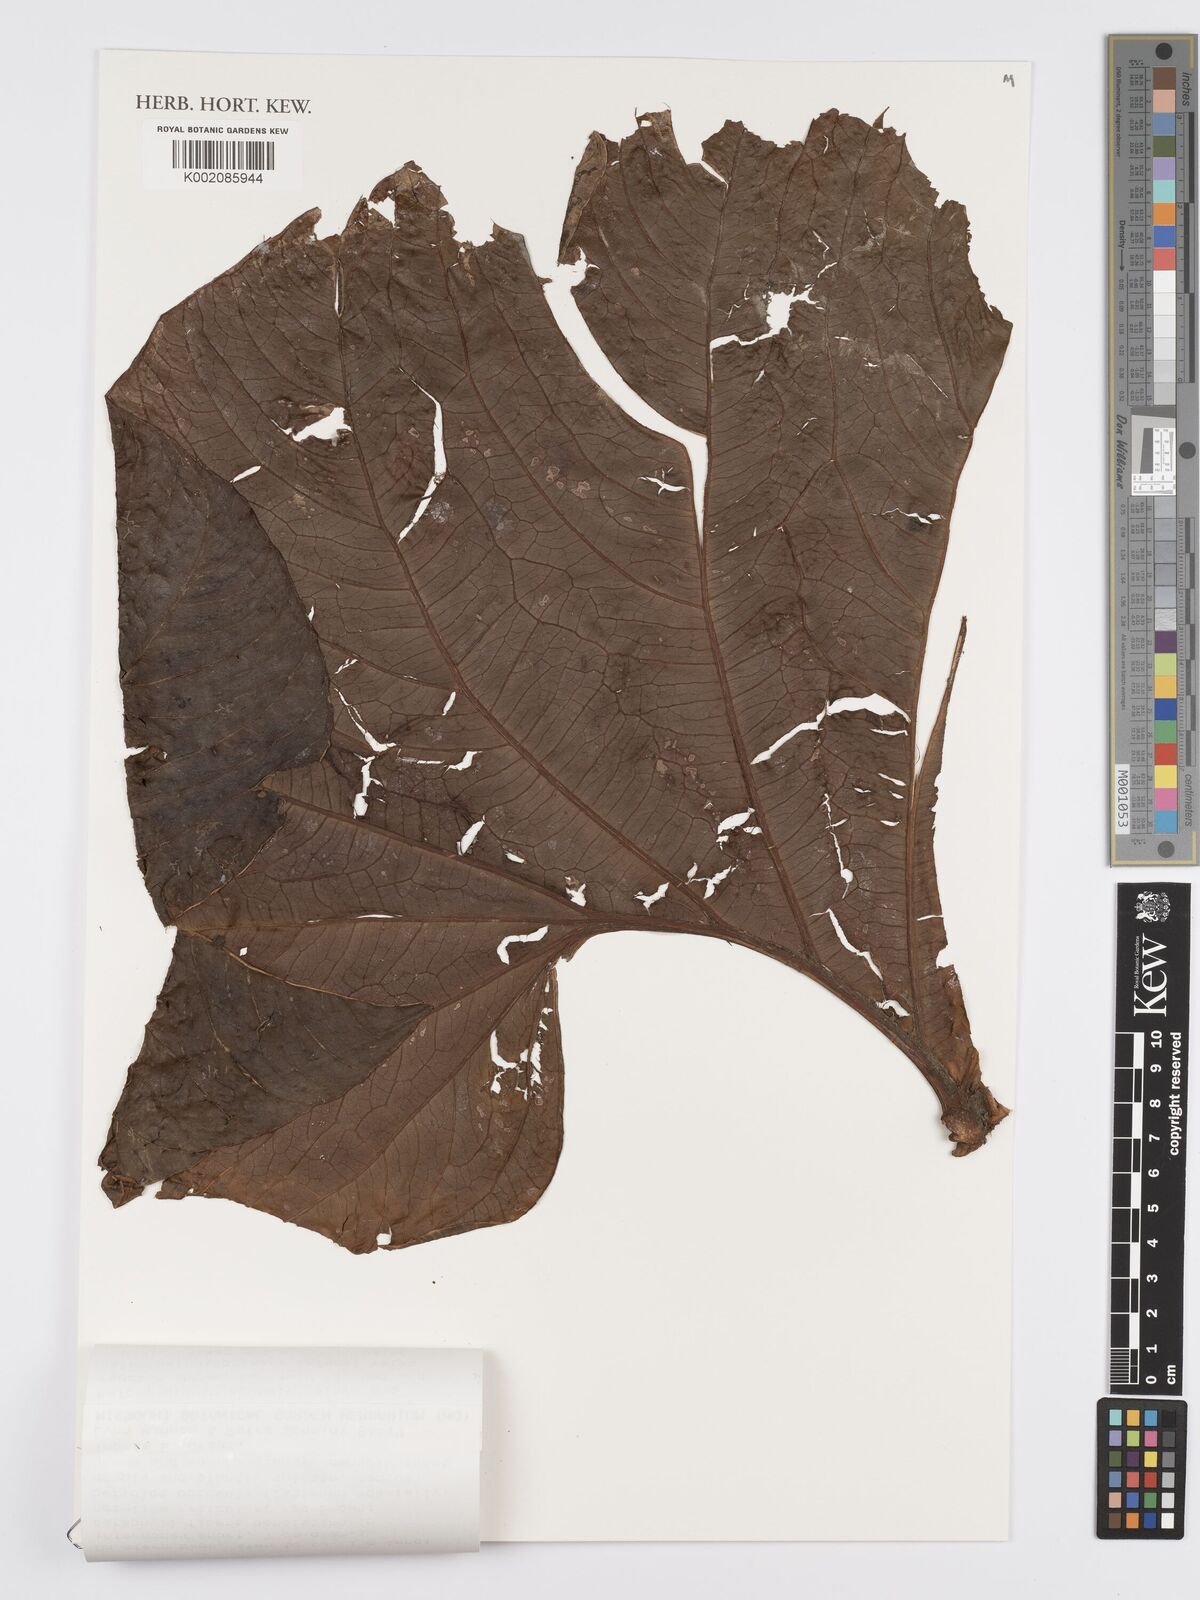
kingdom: Plantae
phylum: Tracheophyta
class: Liliopsida
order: Alismatales
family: Araceae
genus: Anthurium
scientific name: Anthurium
